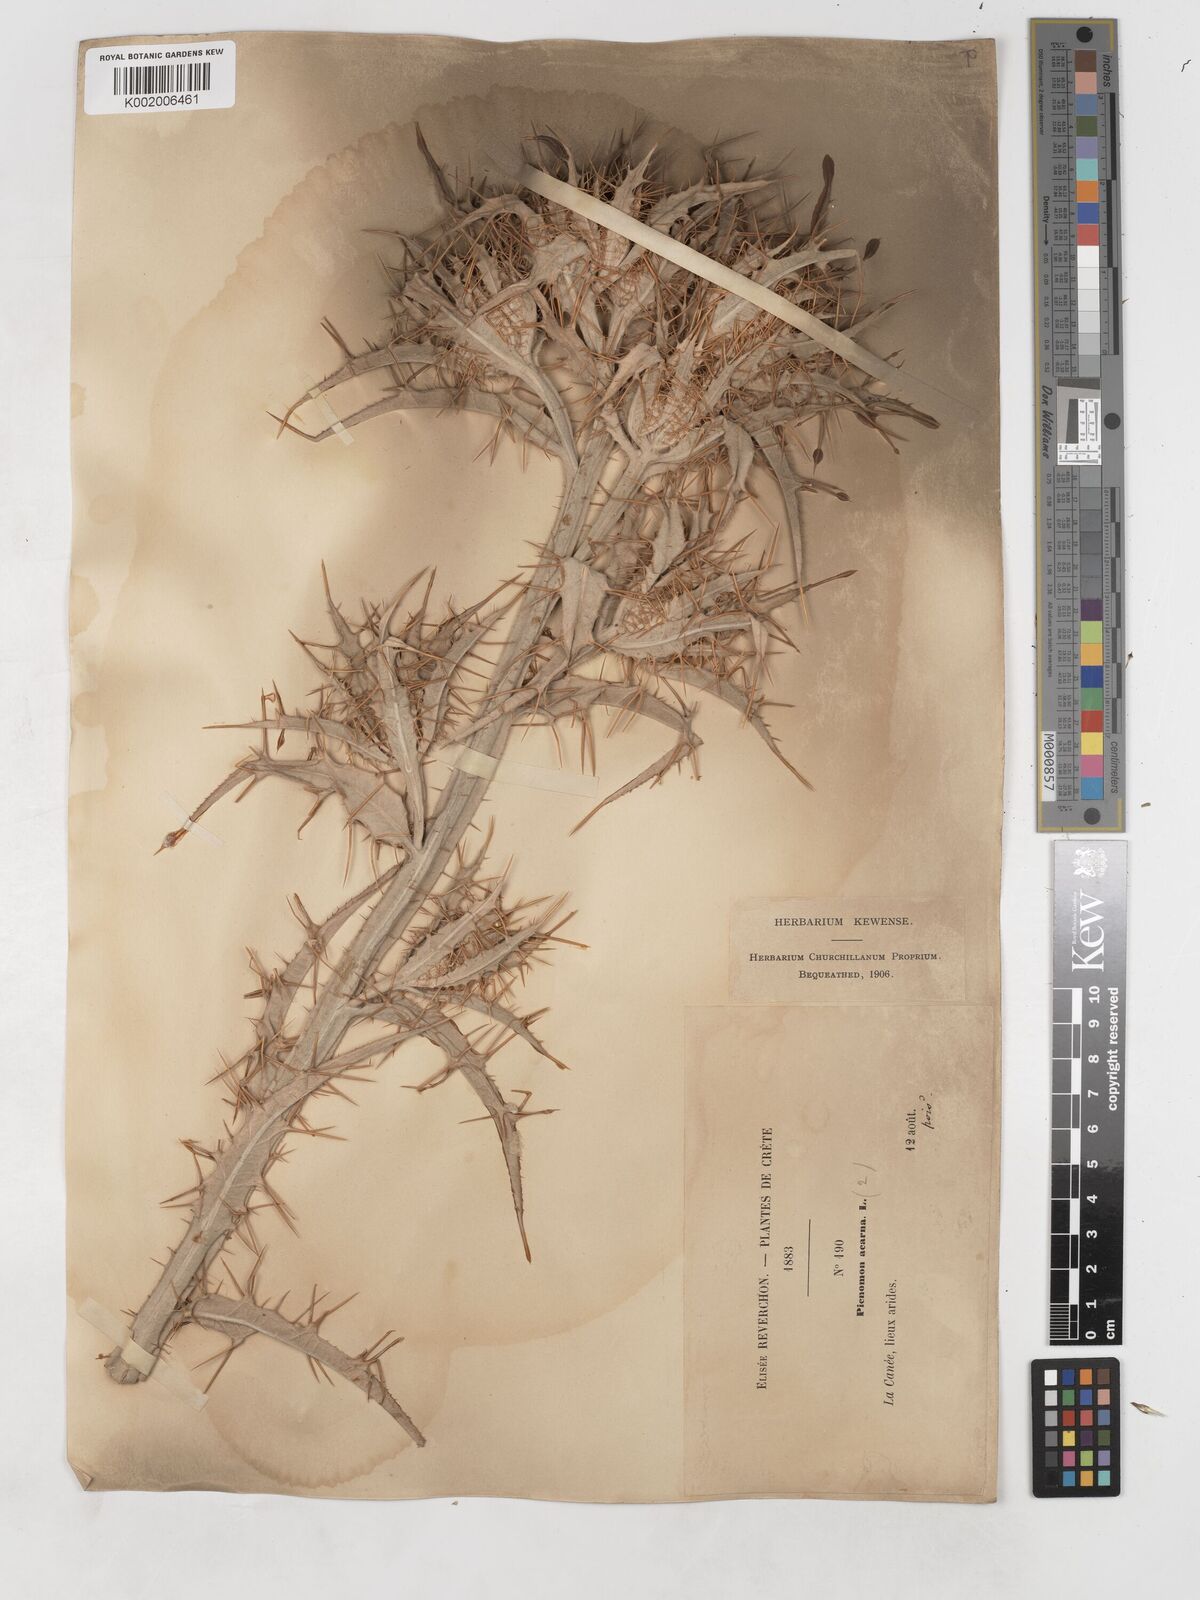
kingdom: Plantae
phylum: Tracheophyta
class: Magnoliopsida
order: Asterales
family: Asteraceae
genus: Picnomon
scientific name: Picnomon acarna
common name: Soldier thistle
